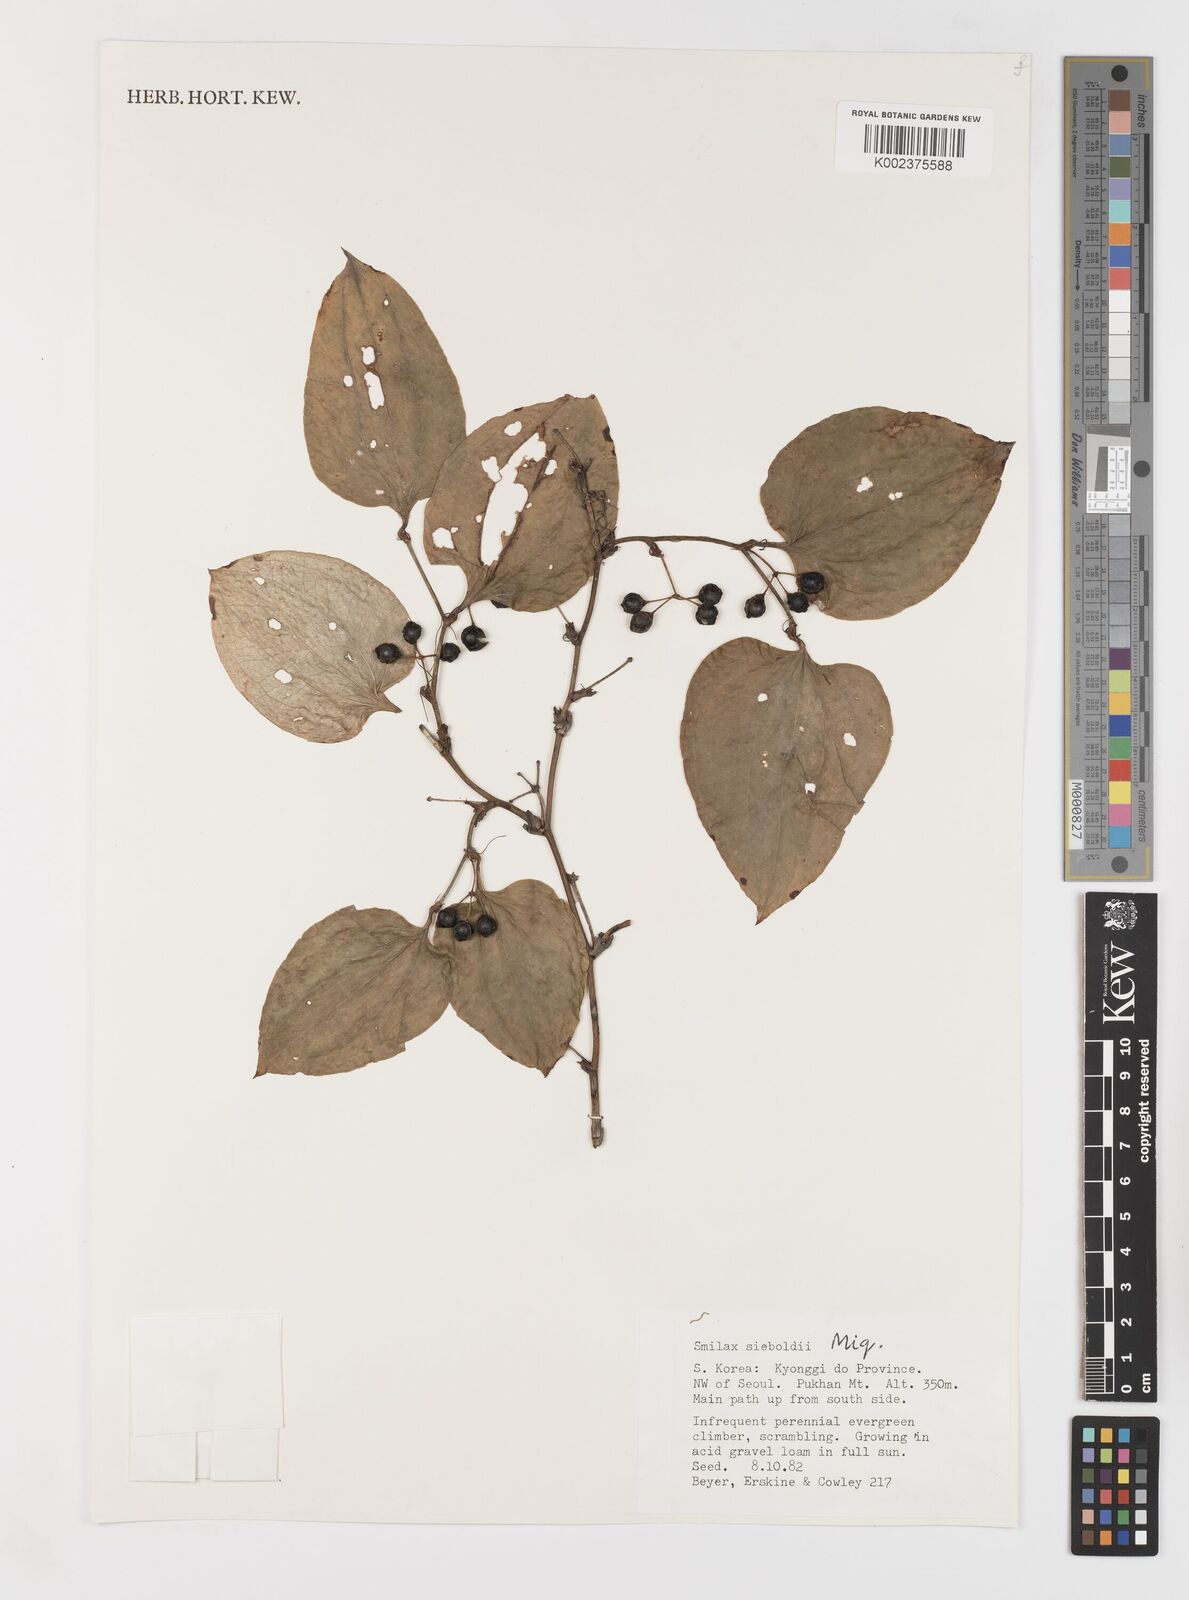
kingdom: Plantae
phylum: Tracheophyta
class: Liliopsida
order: Liliales
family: Smilacaceae
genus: Smilax
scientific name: Smilax sieboldii
